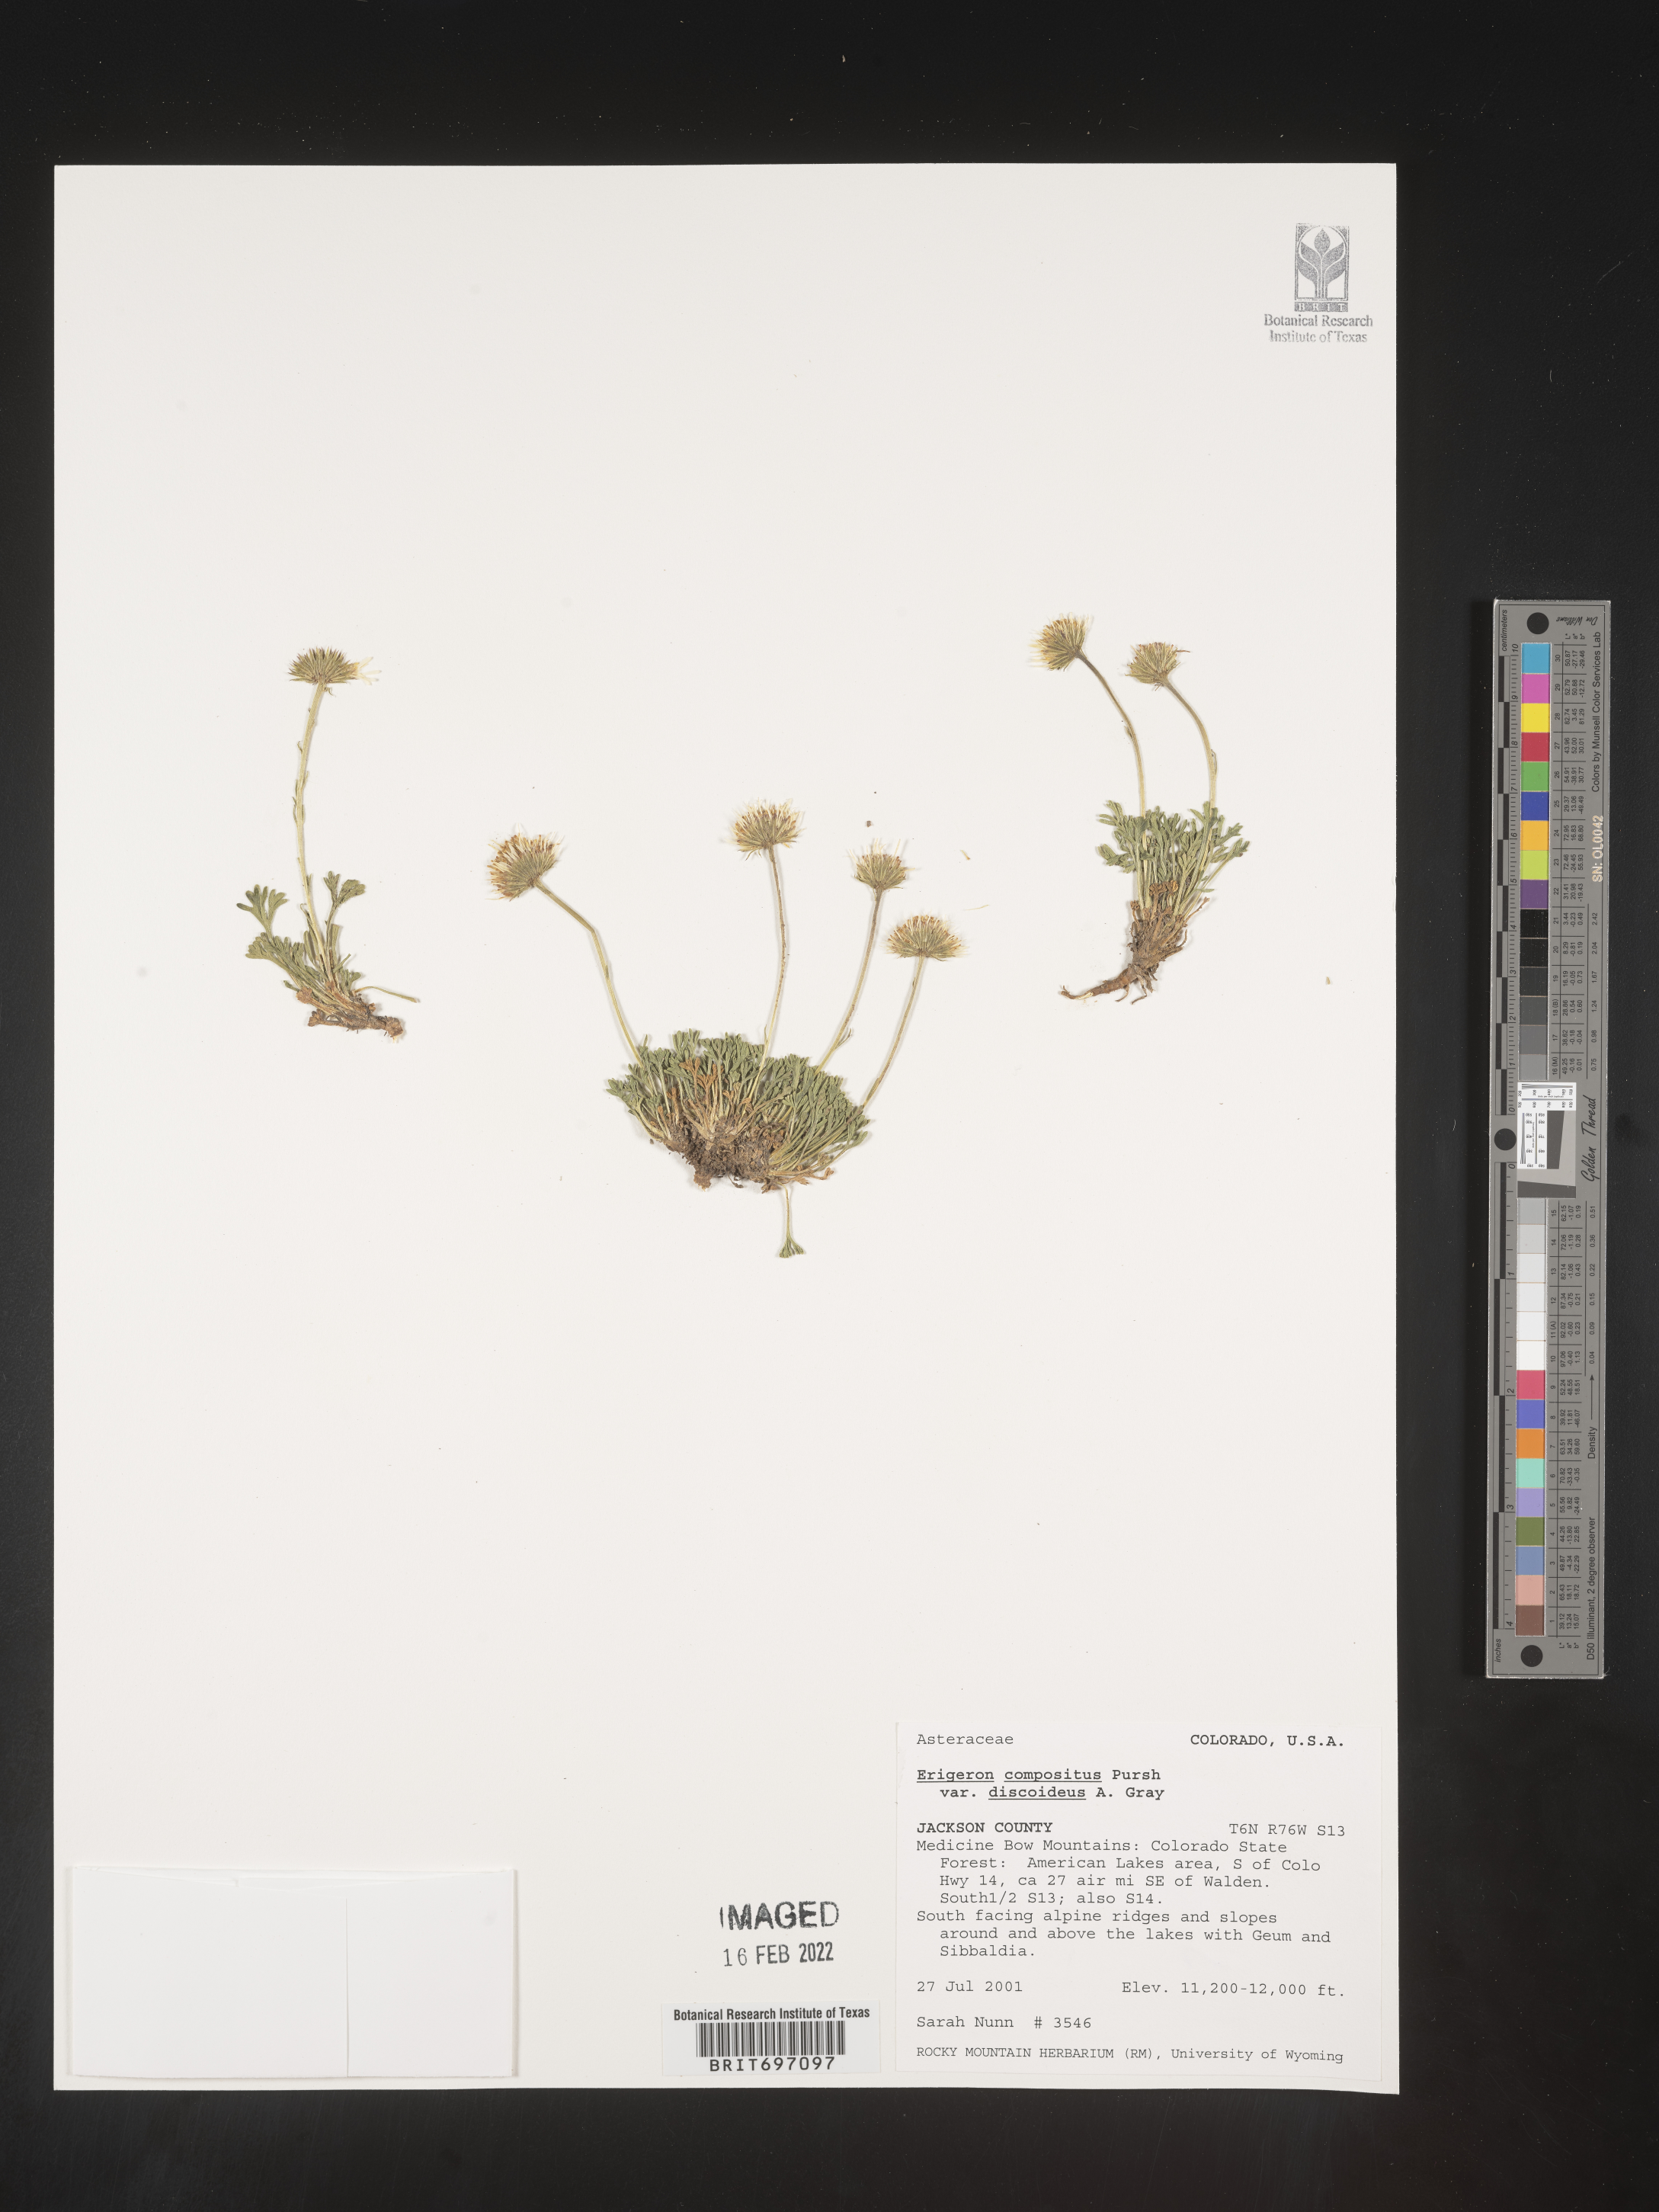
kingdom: Plantae
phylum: Tracheophyta
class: Magnoliopsida
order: Asterales
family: Asteraceae
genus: Erigeron
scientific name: Erigeron compositus
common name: Dwarf mountain fleabane
